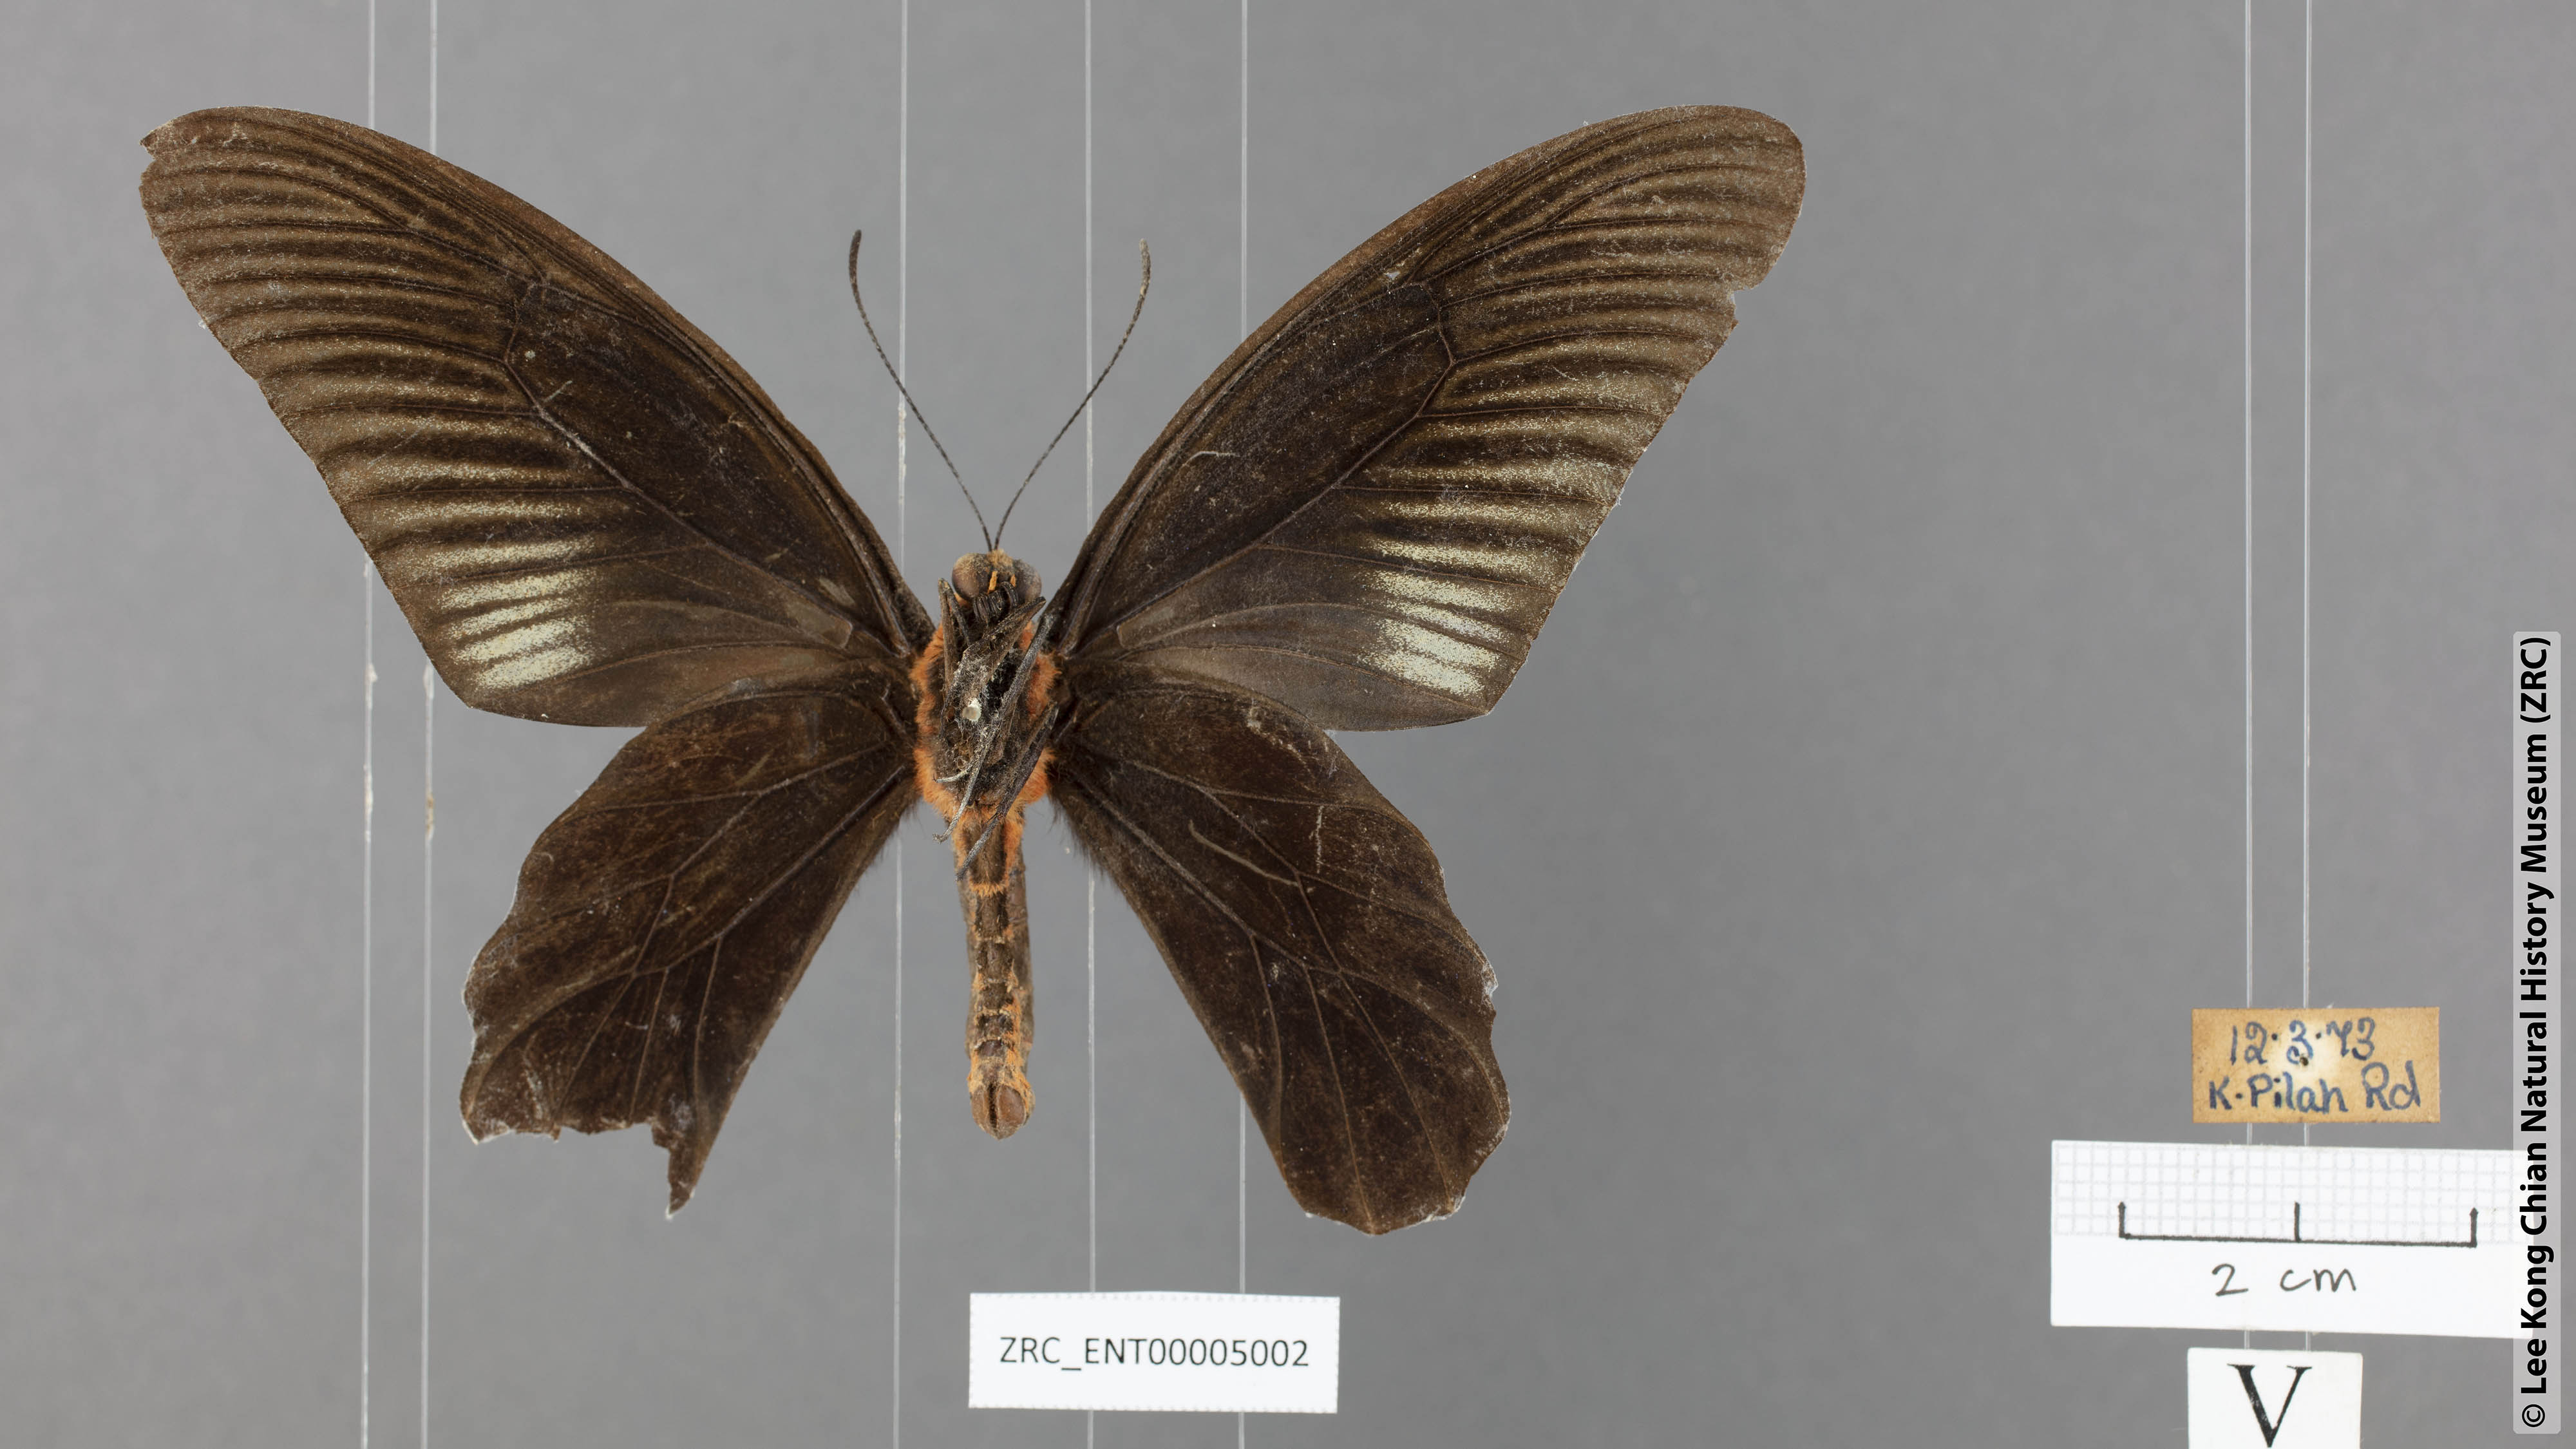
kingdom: Animalia
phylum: Arthropoda
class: Insecta
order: Lepidoptera
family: Papilionidae
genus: Atrophaneura
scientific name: Atrophaneura varuna
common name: Common batwing
